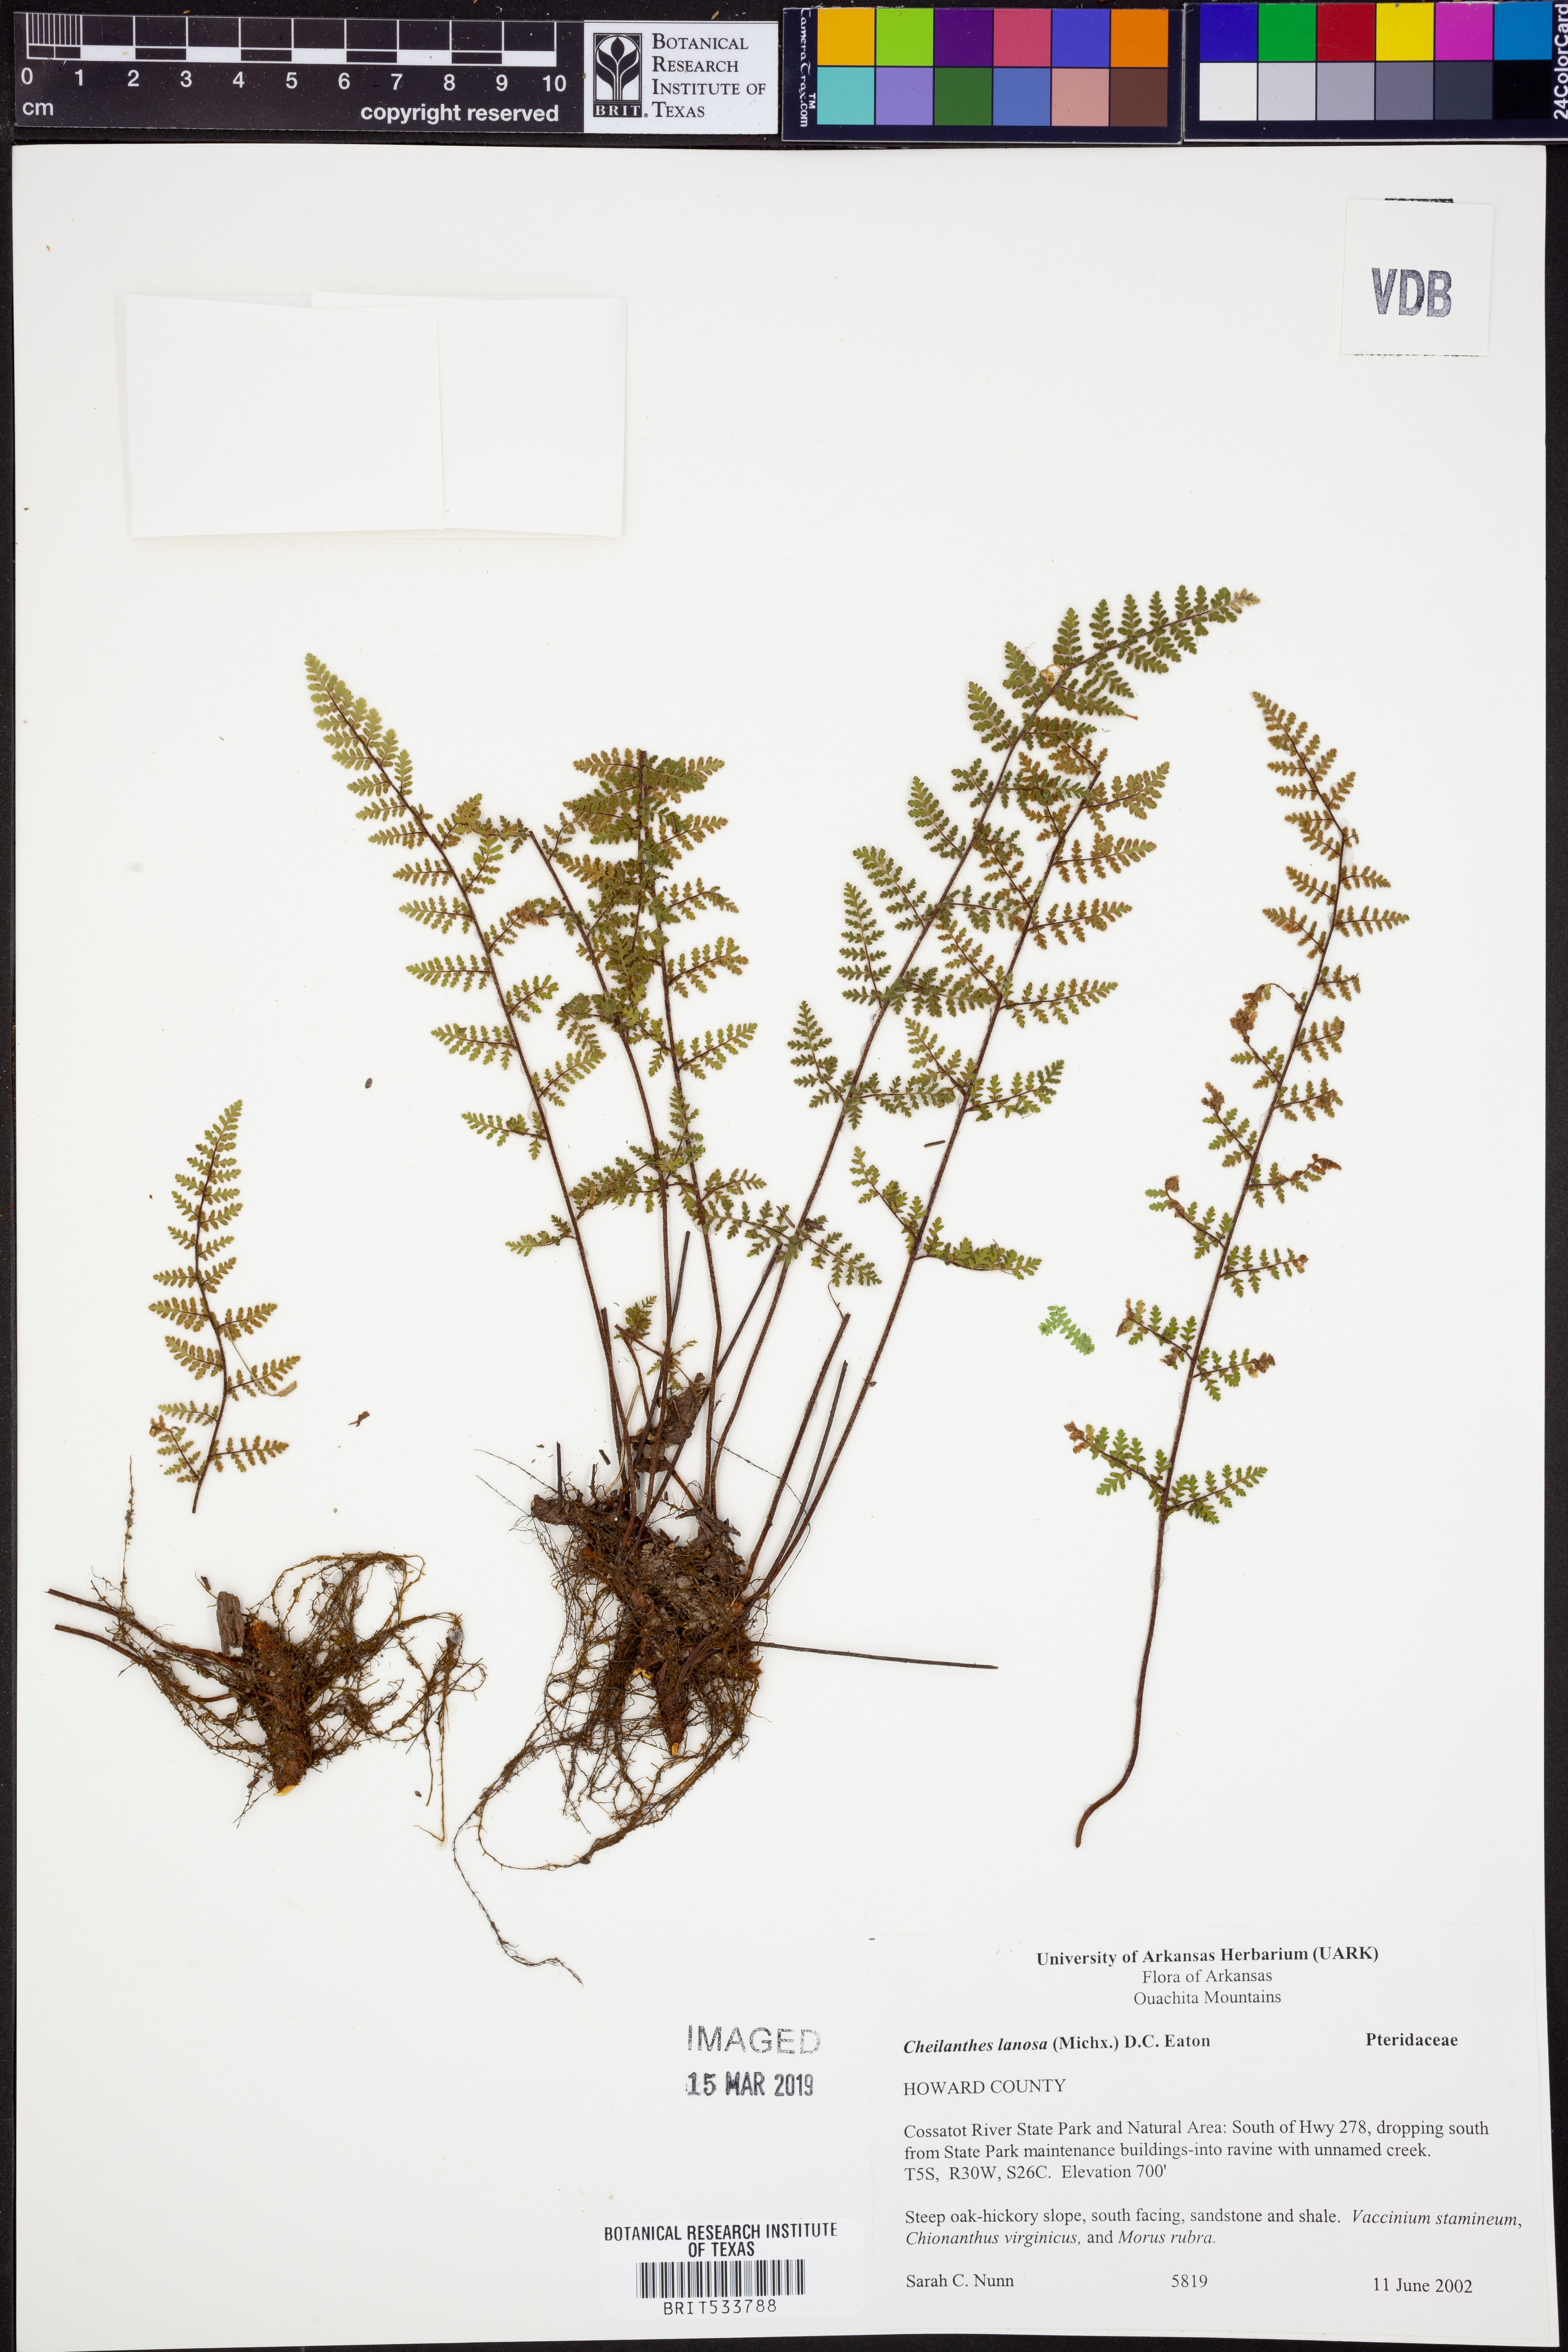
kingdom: Plantae
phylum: Tracheophyta
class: Polypodiopsida
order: Polypodiales
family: Pteridaceae
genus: Myriopteris
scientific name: Myriopteris lanosa
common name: Hairy lip fern
